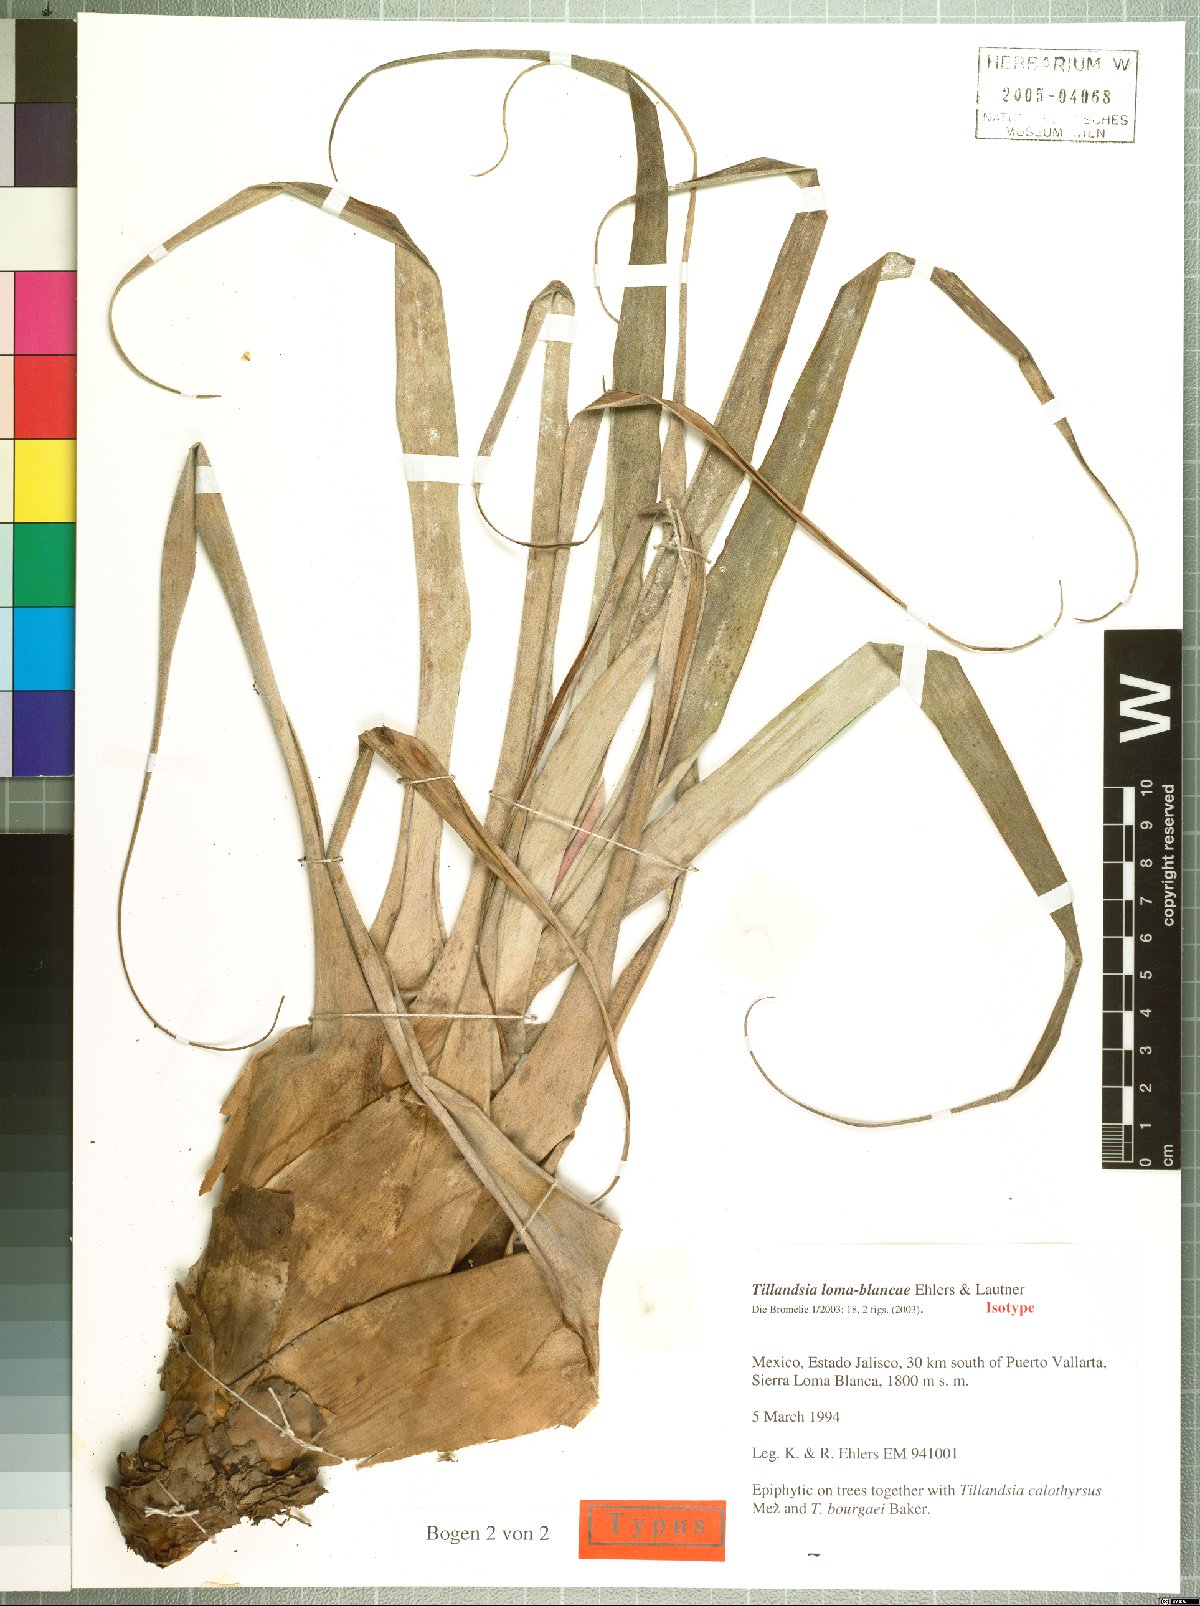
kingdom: Plantae
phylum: Tracheophyta
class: Liliopsida
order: Poales
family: Bromeliaceae
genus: Tillandsia
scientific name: Tillandsia loma-blancae
